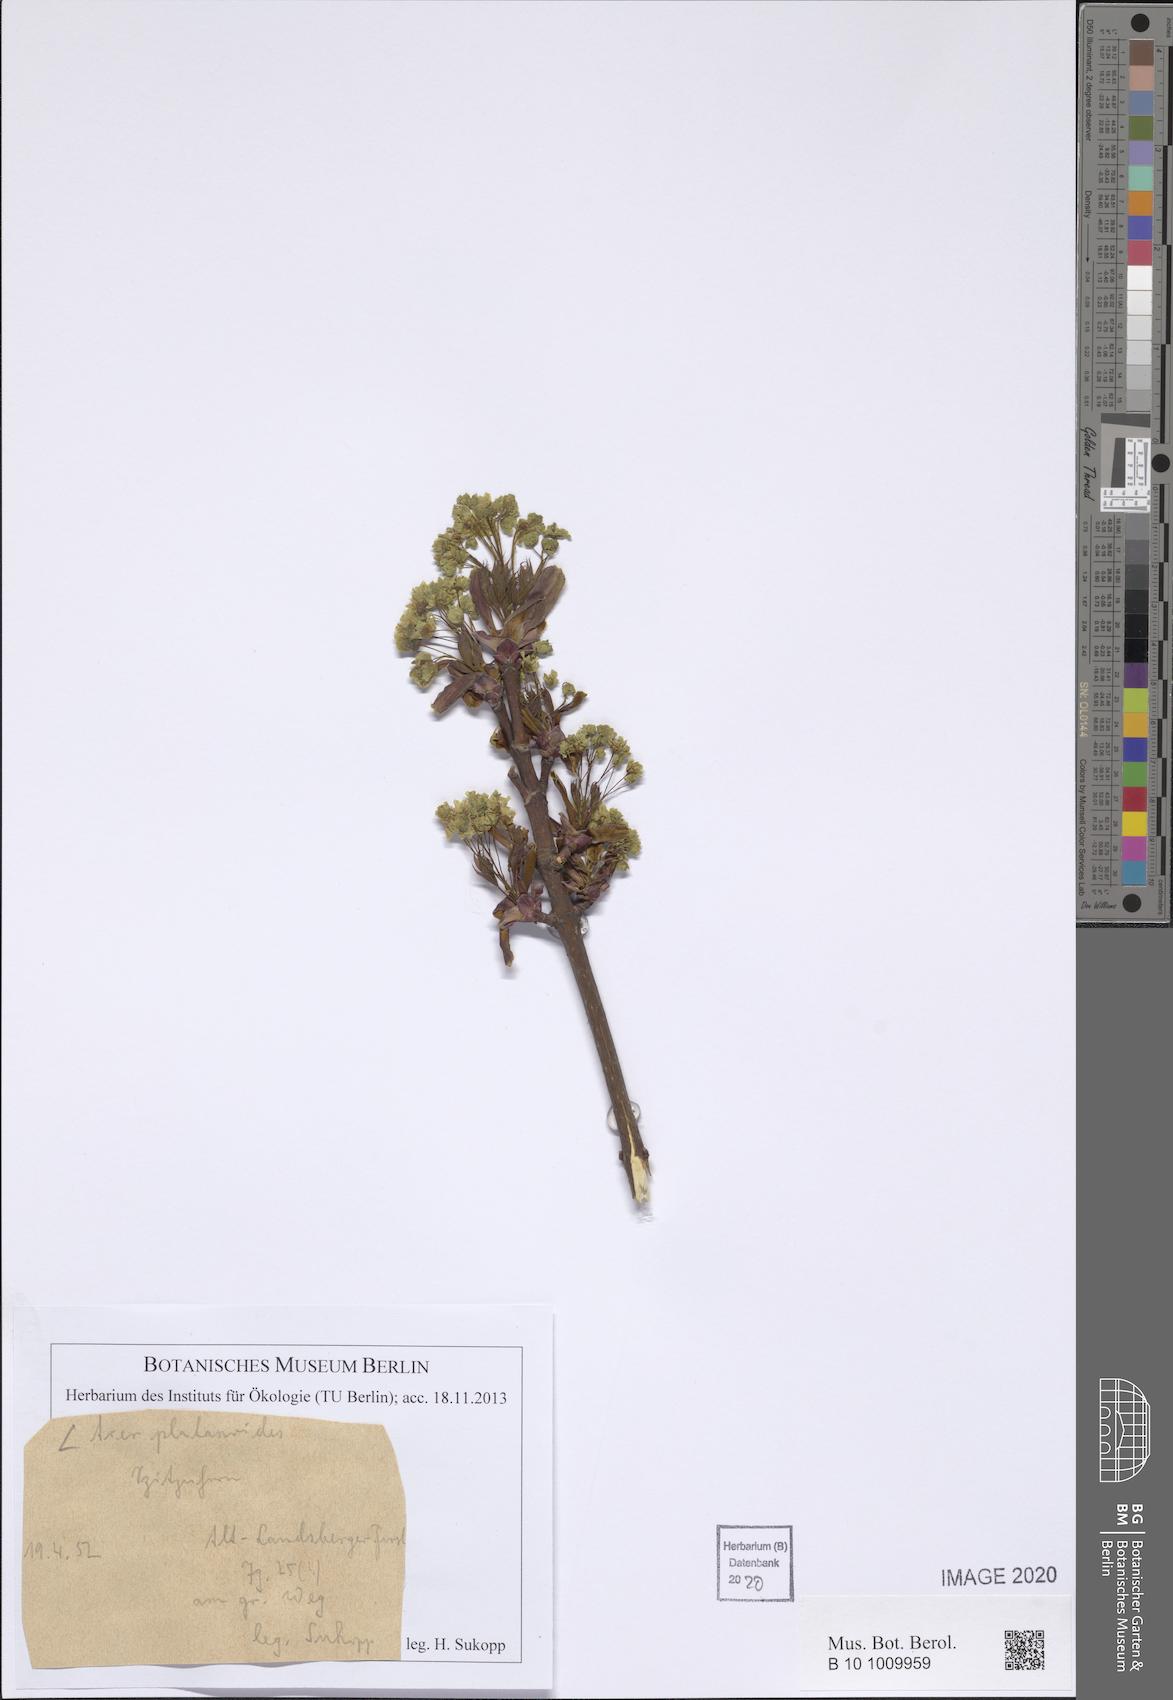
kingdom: Plantae
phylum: Tracheophyta
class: Magnoliopsida
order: Sapindales
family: Sapindaceae
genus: Acer
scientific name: Acer platanoides
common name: Norway maple
